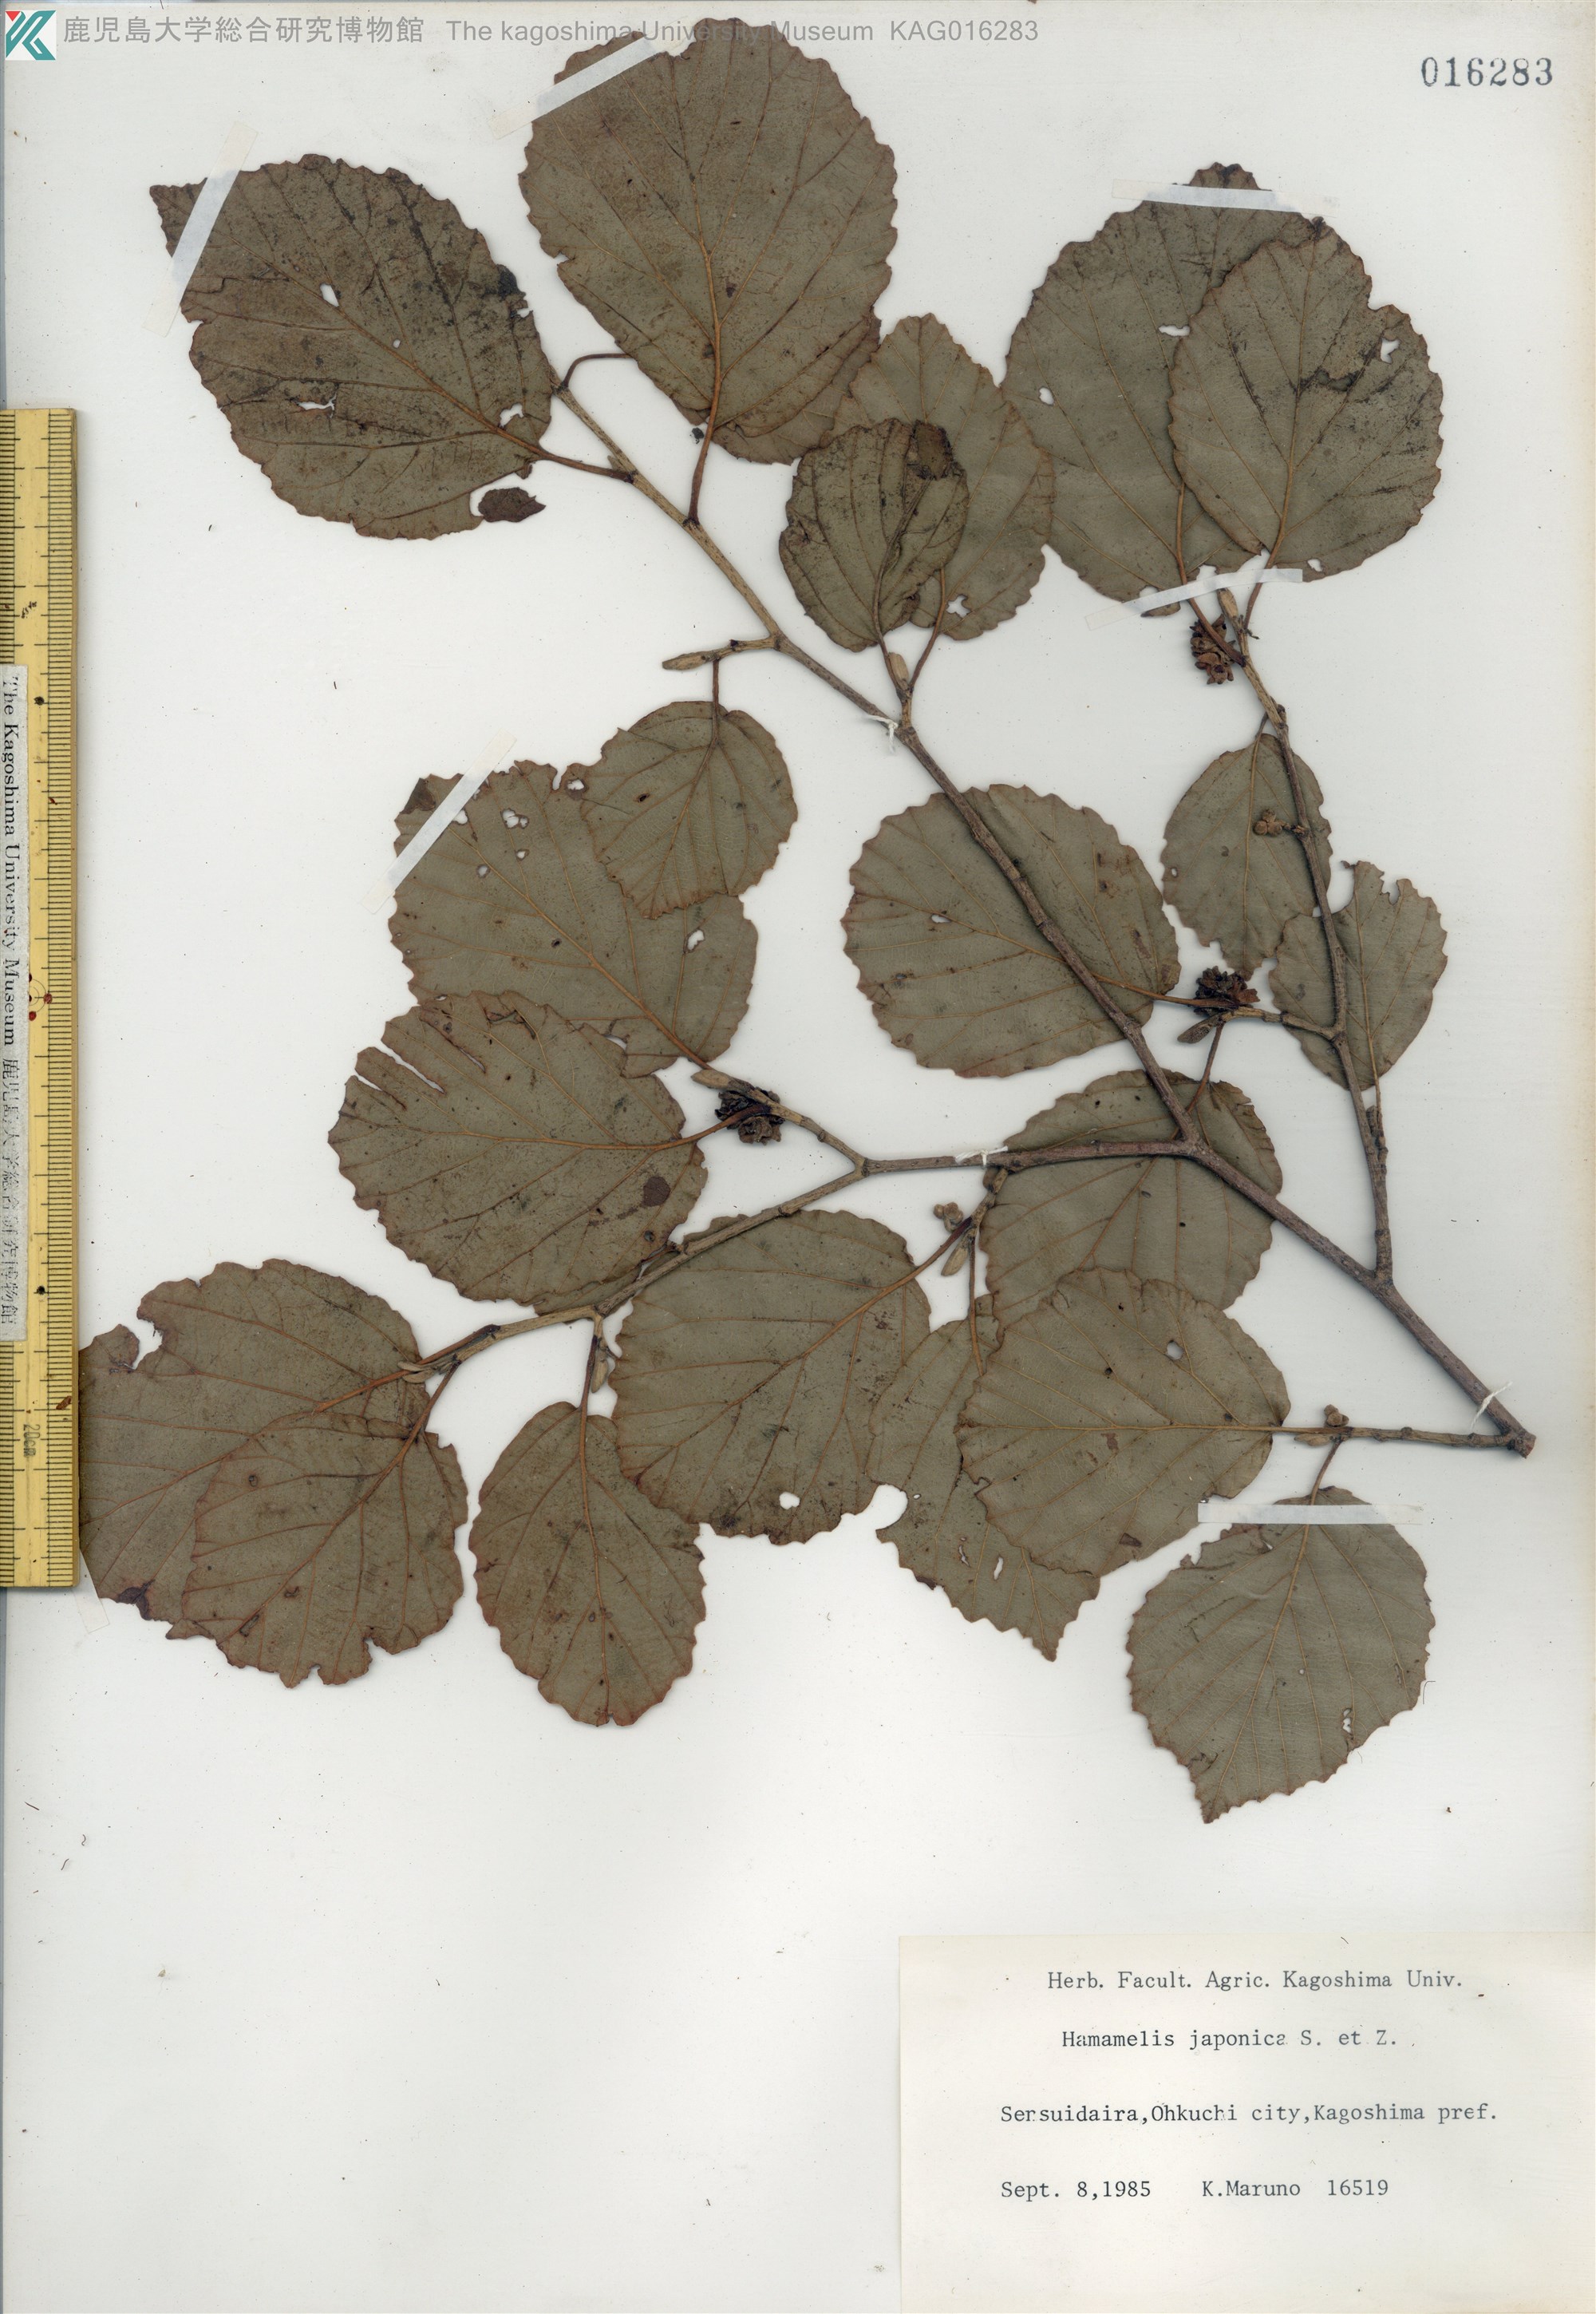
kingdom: Plantae
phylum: Tracheophyta
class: Magnoliopsida
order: Saxifragales
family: Hamamelidaceae
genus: Hamamelis
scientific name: Hamamelis japonica
